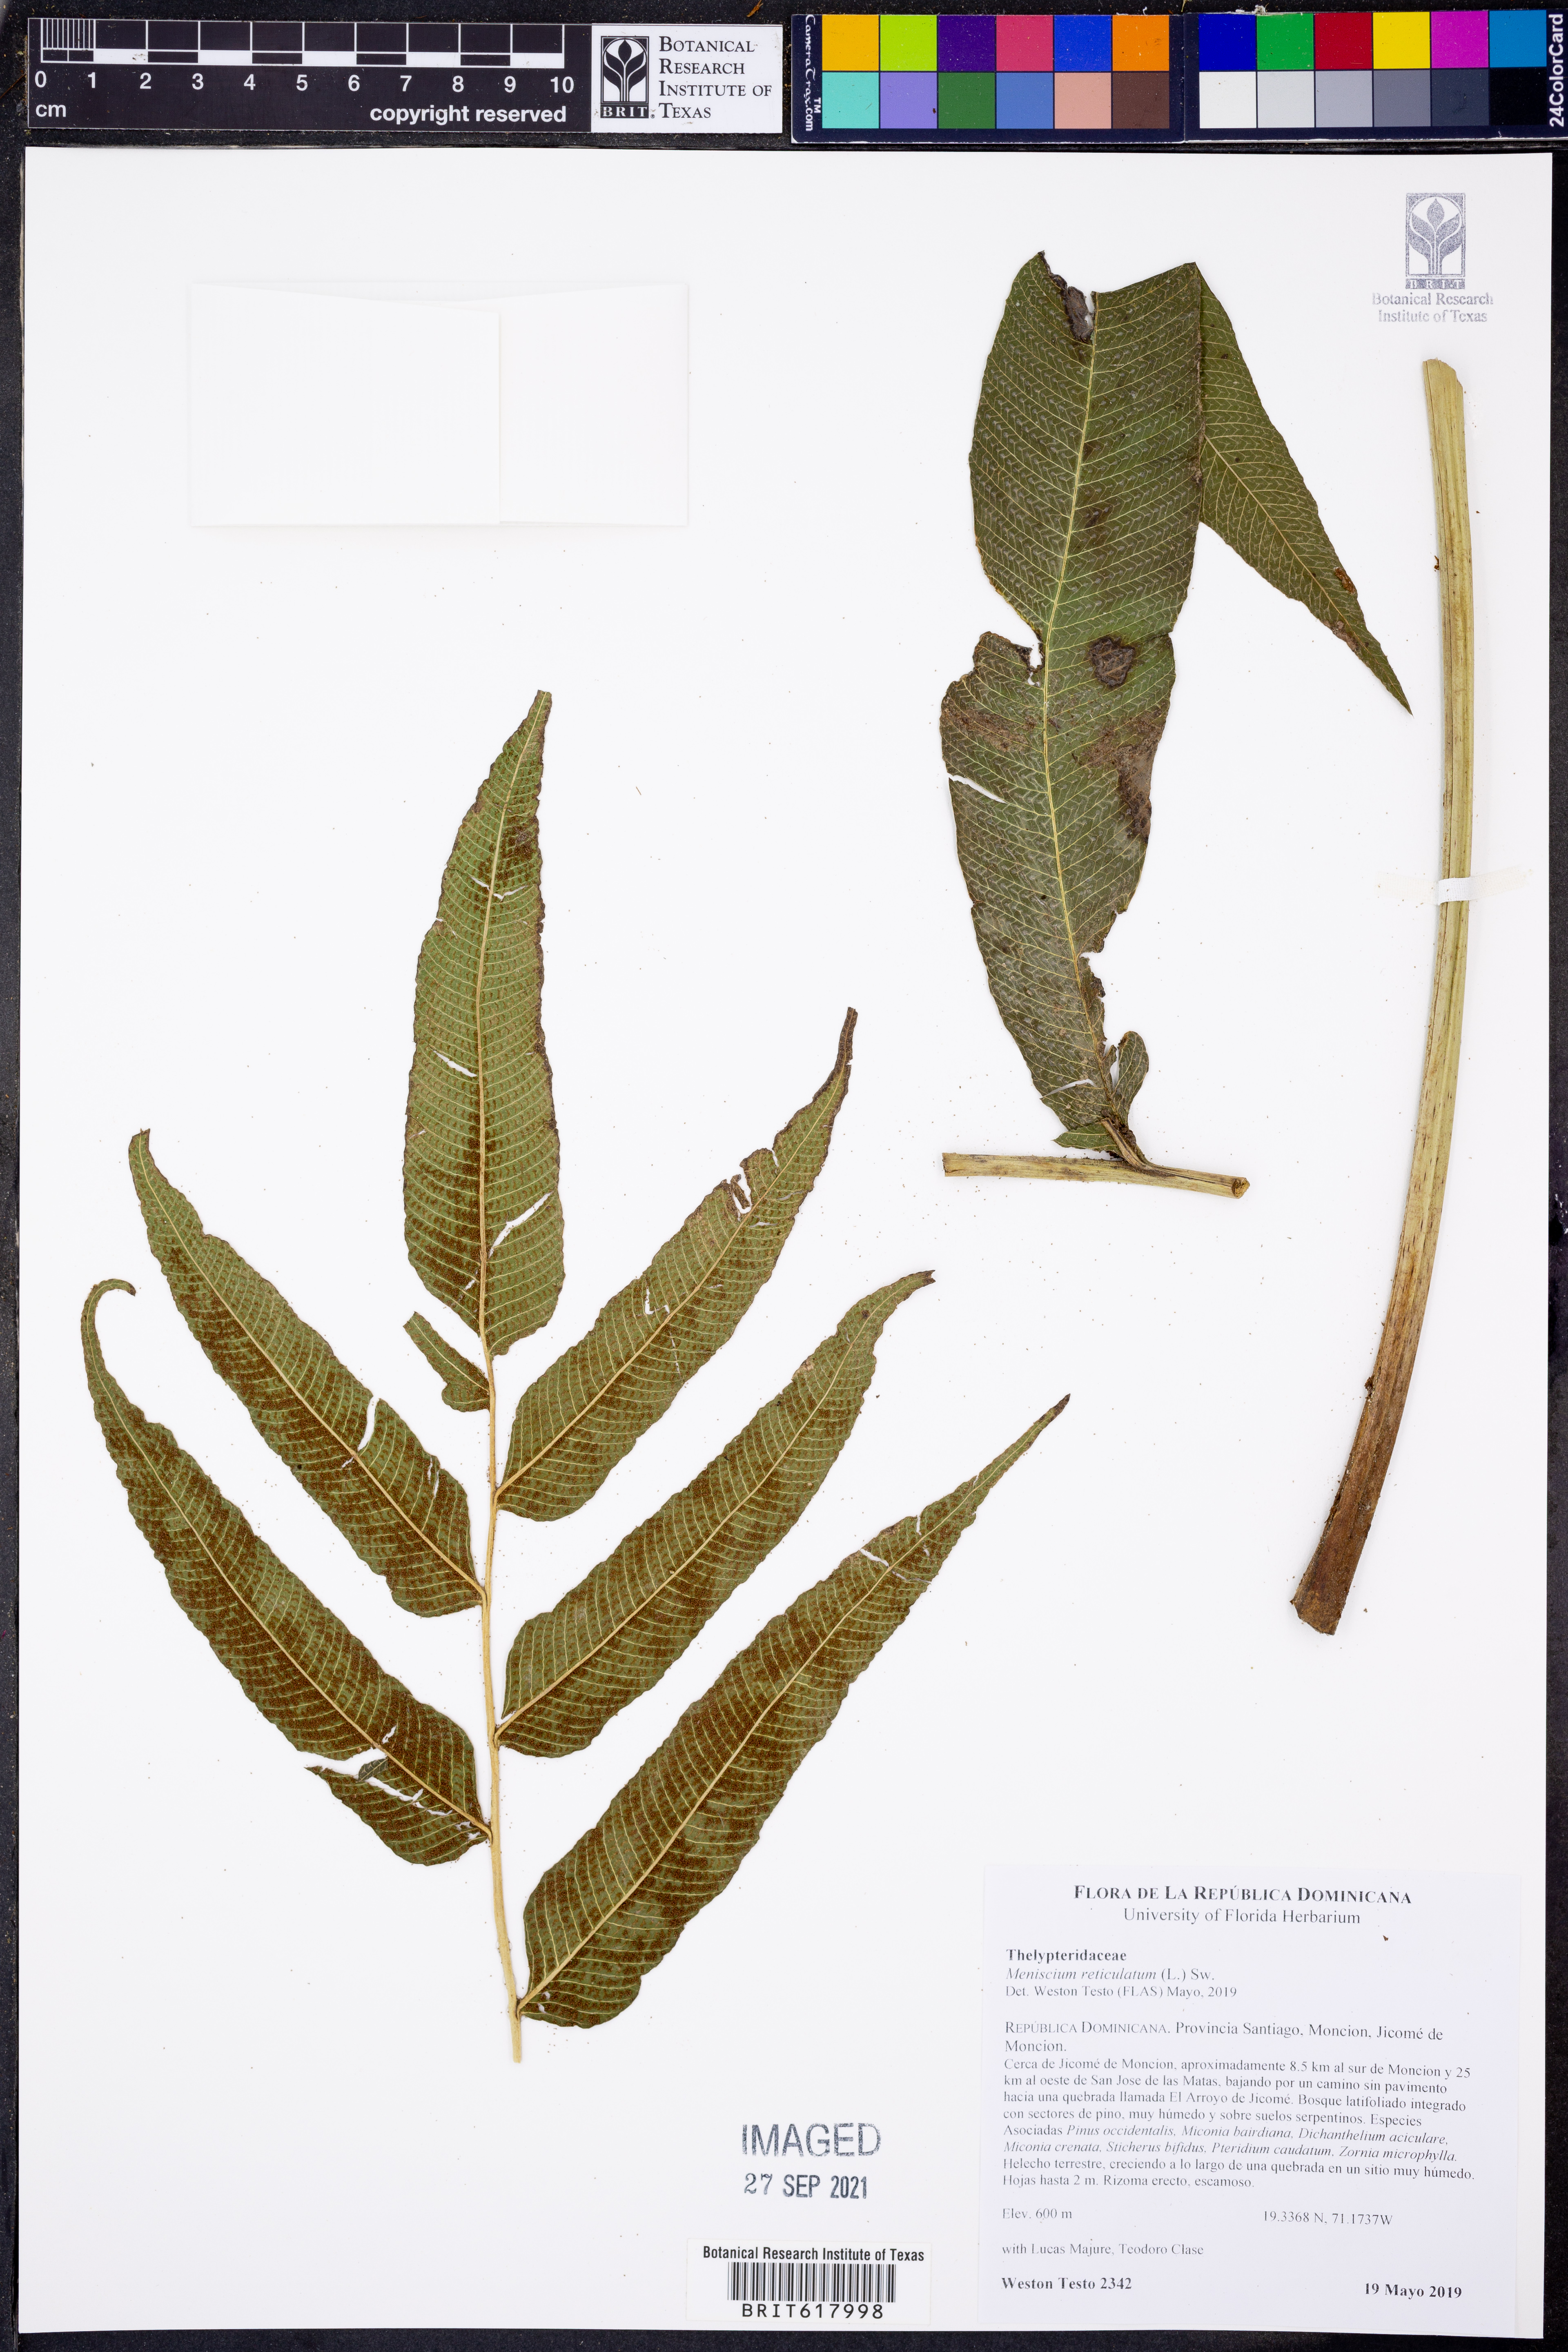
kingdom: Plantae
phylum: Tracheophyta
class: Polypodiopsida
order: Polypodiales
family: Thelypteridaceae
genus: Meniscium
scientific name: Meniscium reticulatum
